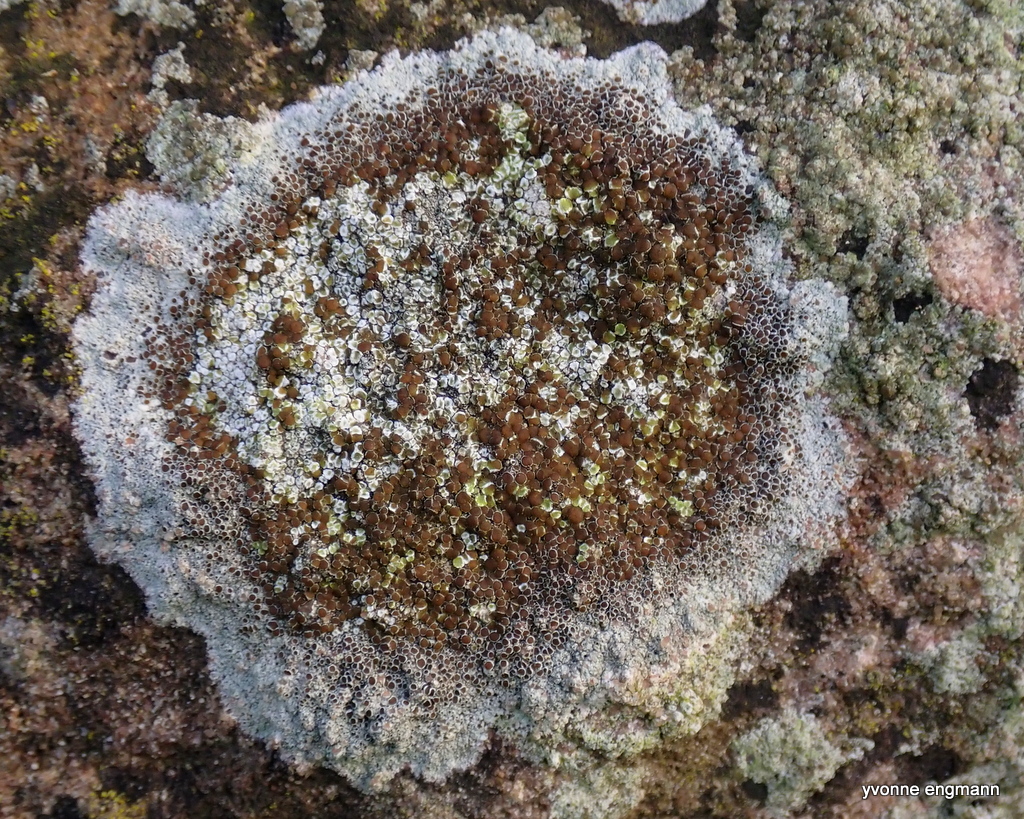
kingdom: Fungi
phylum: Ascomycota
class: Lecanoromycetes
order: Lecanorales
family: Lecanoraceae
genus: Lecanora
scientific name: Lecanora campestris
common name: mur-kantskivelav
